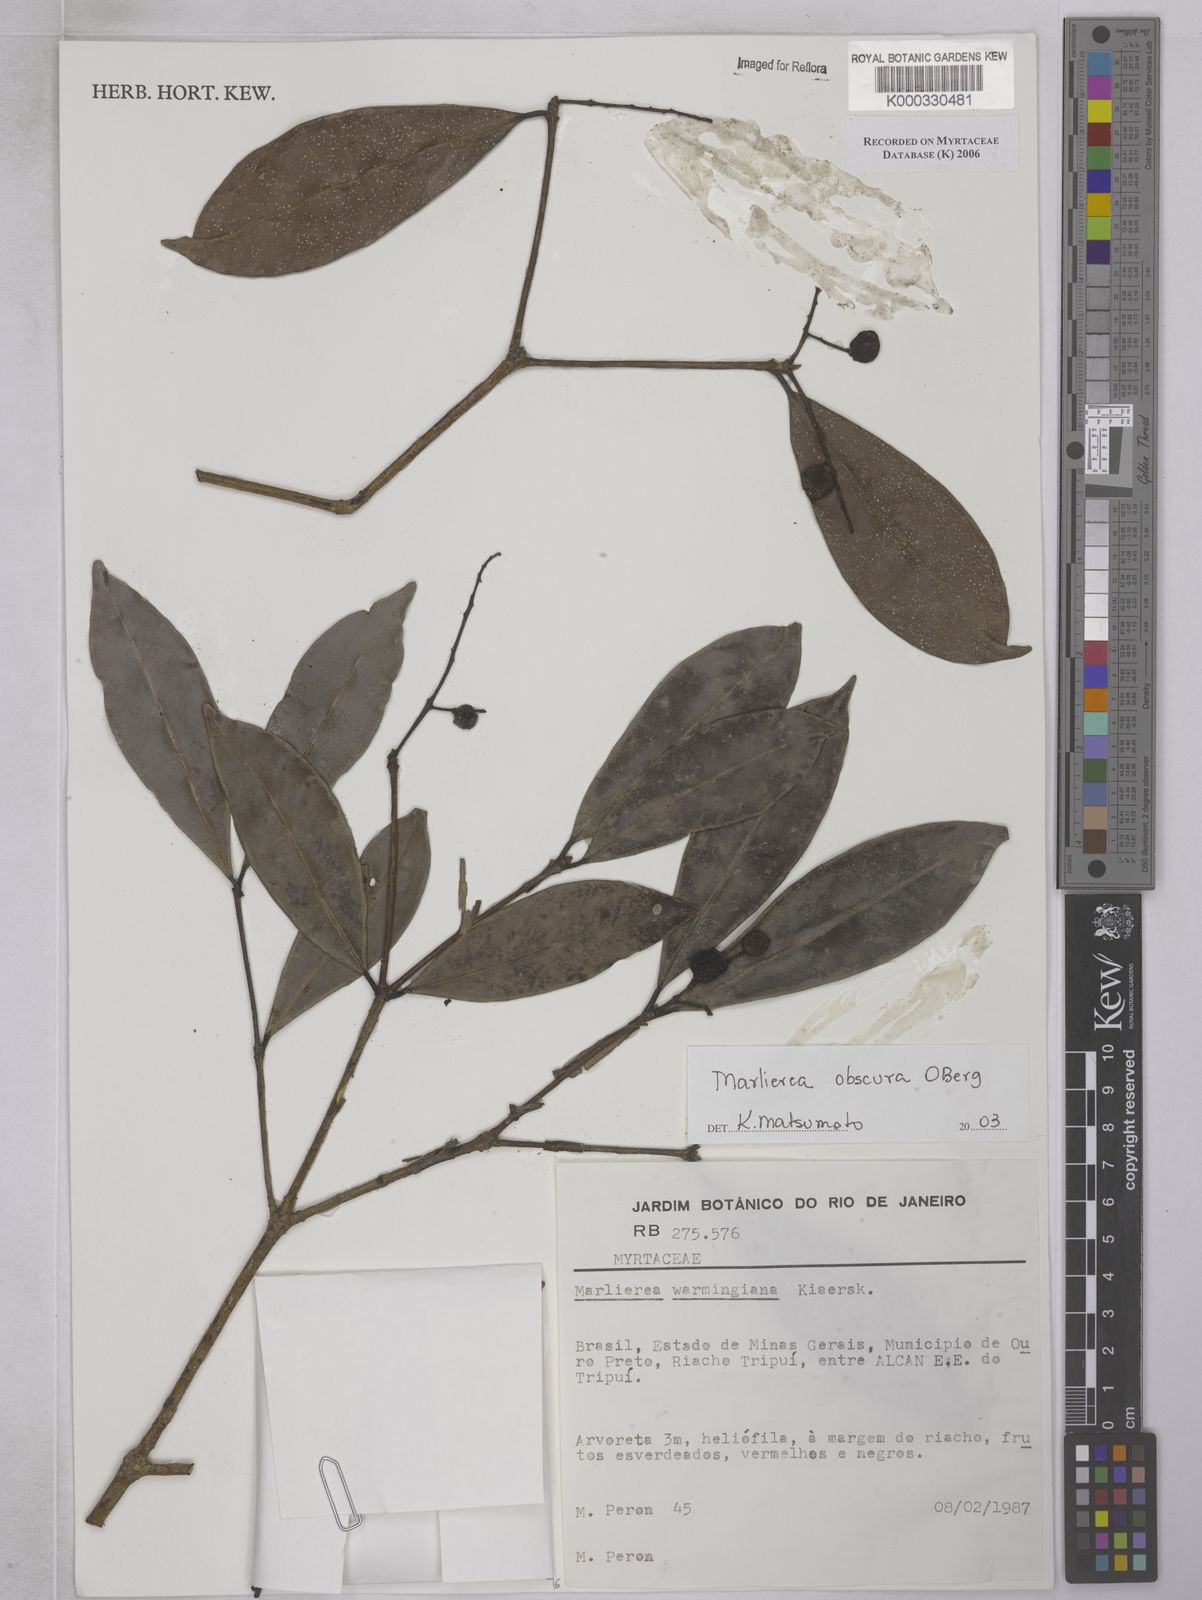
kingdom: Plantae
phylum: Tracheophyta
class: Magnoliopsida
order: Myrtales
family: Myrtaceae
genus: Myrcia
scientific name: Myrcia neoobscura
